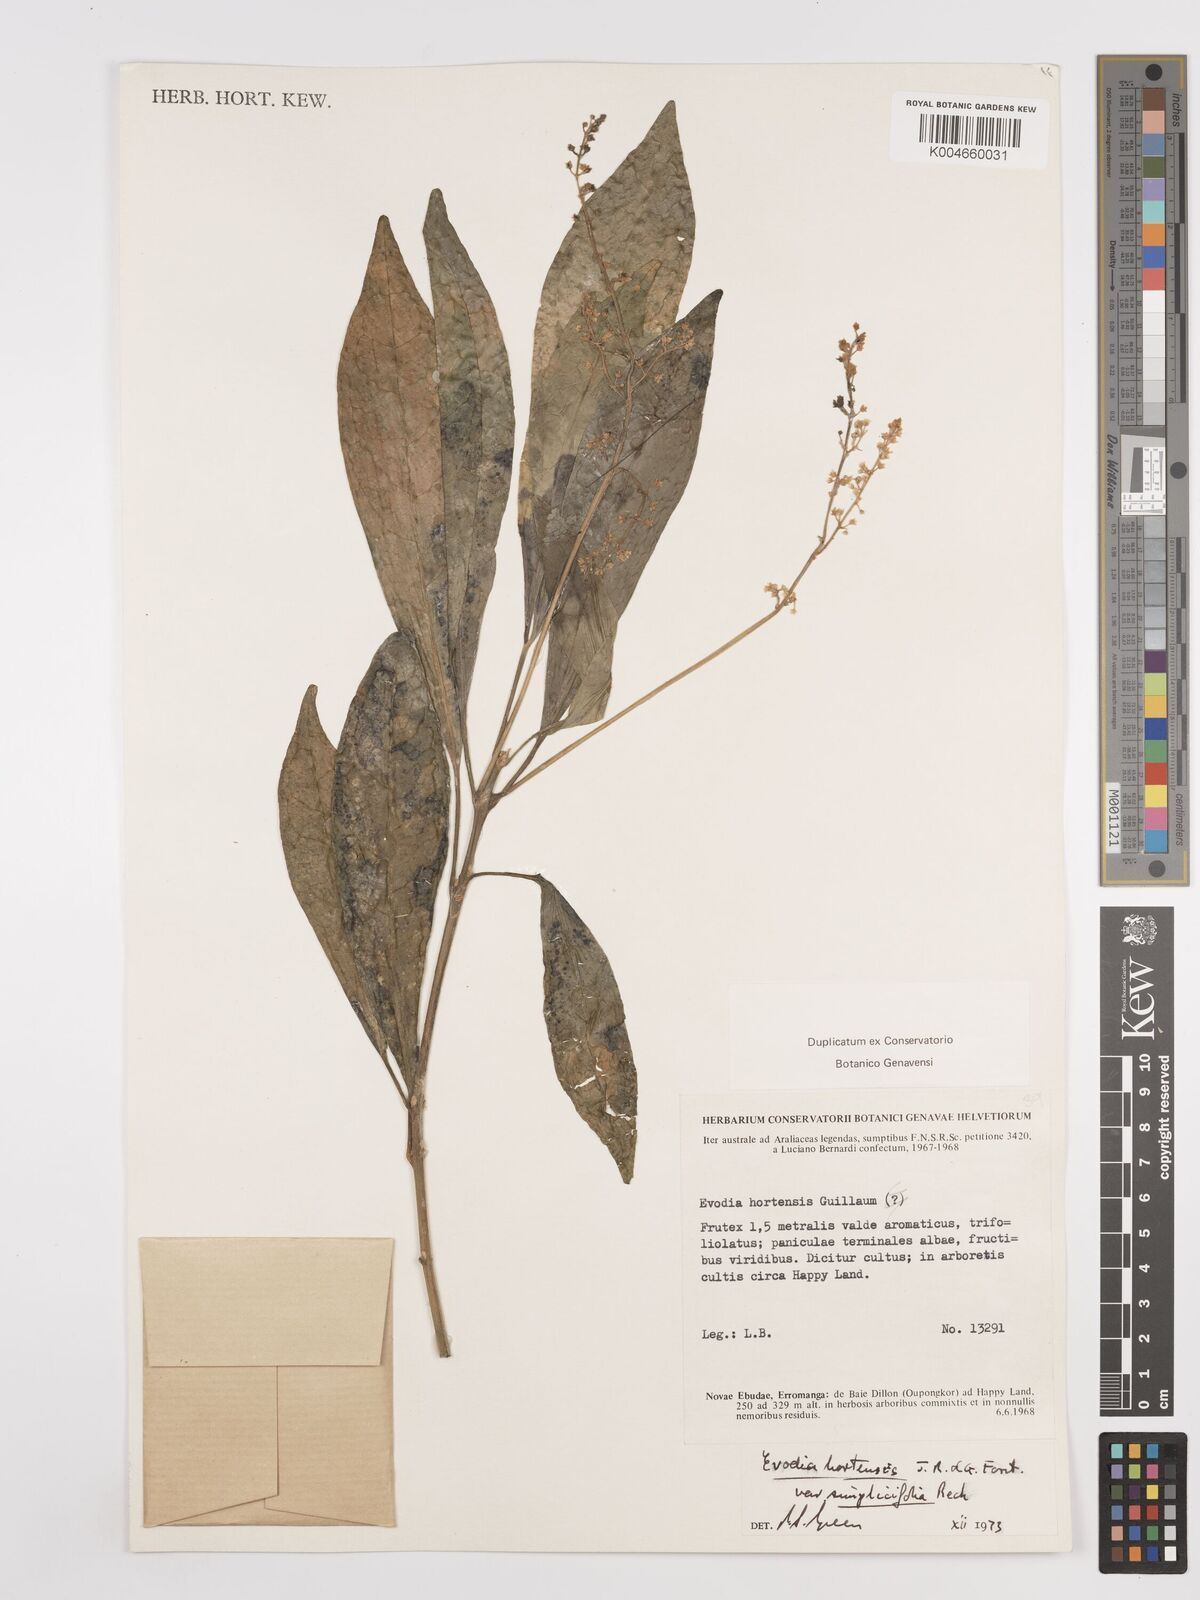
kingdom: Plantae
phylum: Tracheophyta
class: Magnoliopsida
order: Sapindales
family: Rutaceae
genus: Euodia
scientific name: Euodia hortensis
